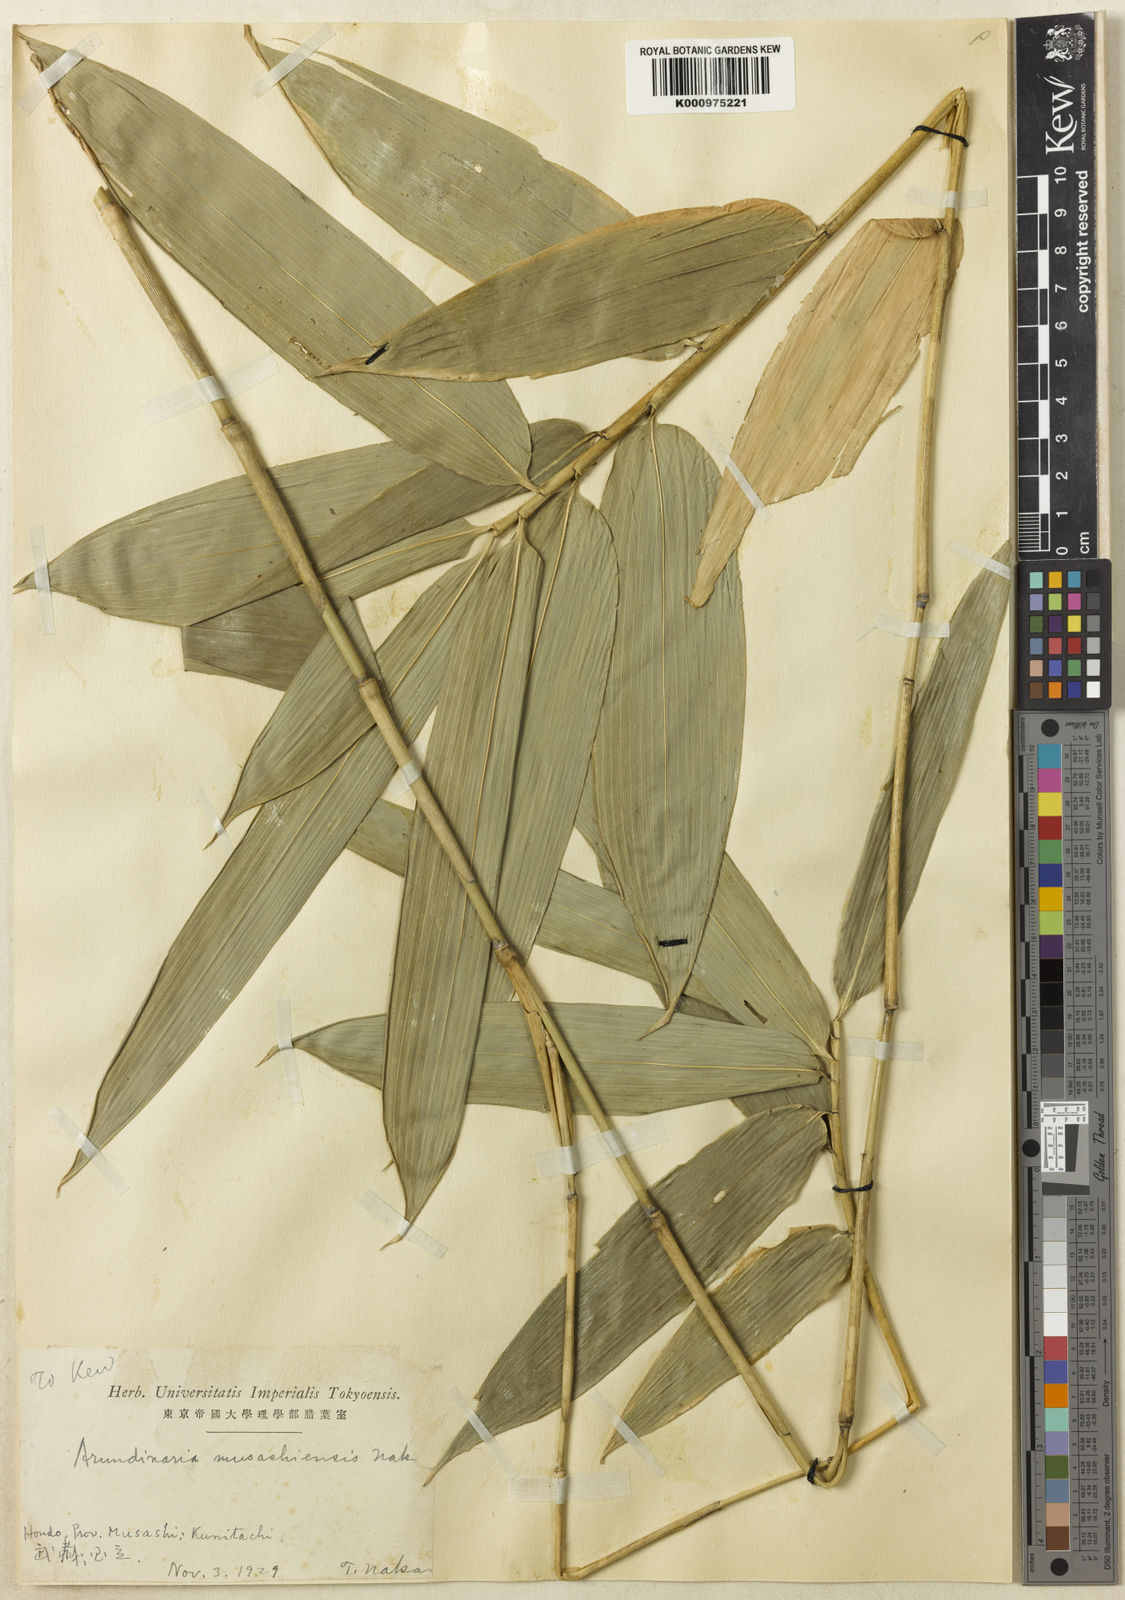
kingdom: Plantae
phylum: Tracheophyta
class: Liliopsida
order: Poales
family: Poaceae
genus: Sasaella
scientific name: Sasaella ramosa
